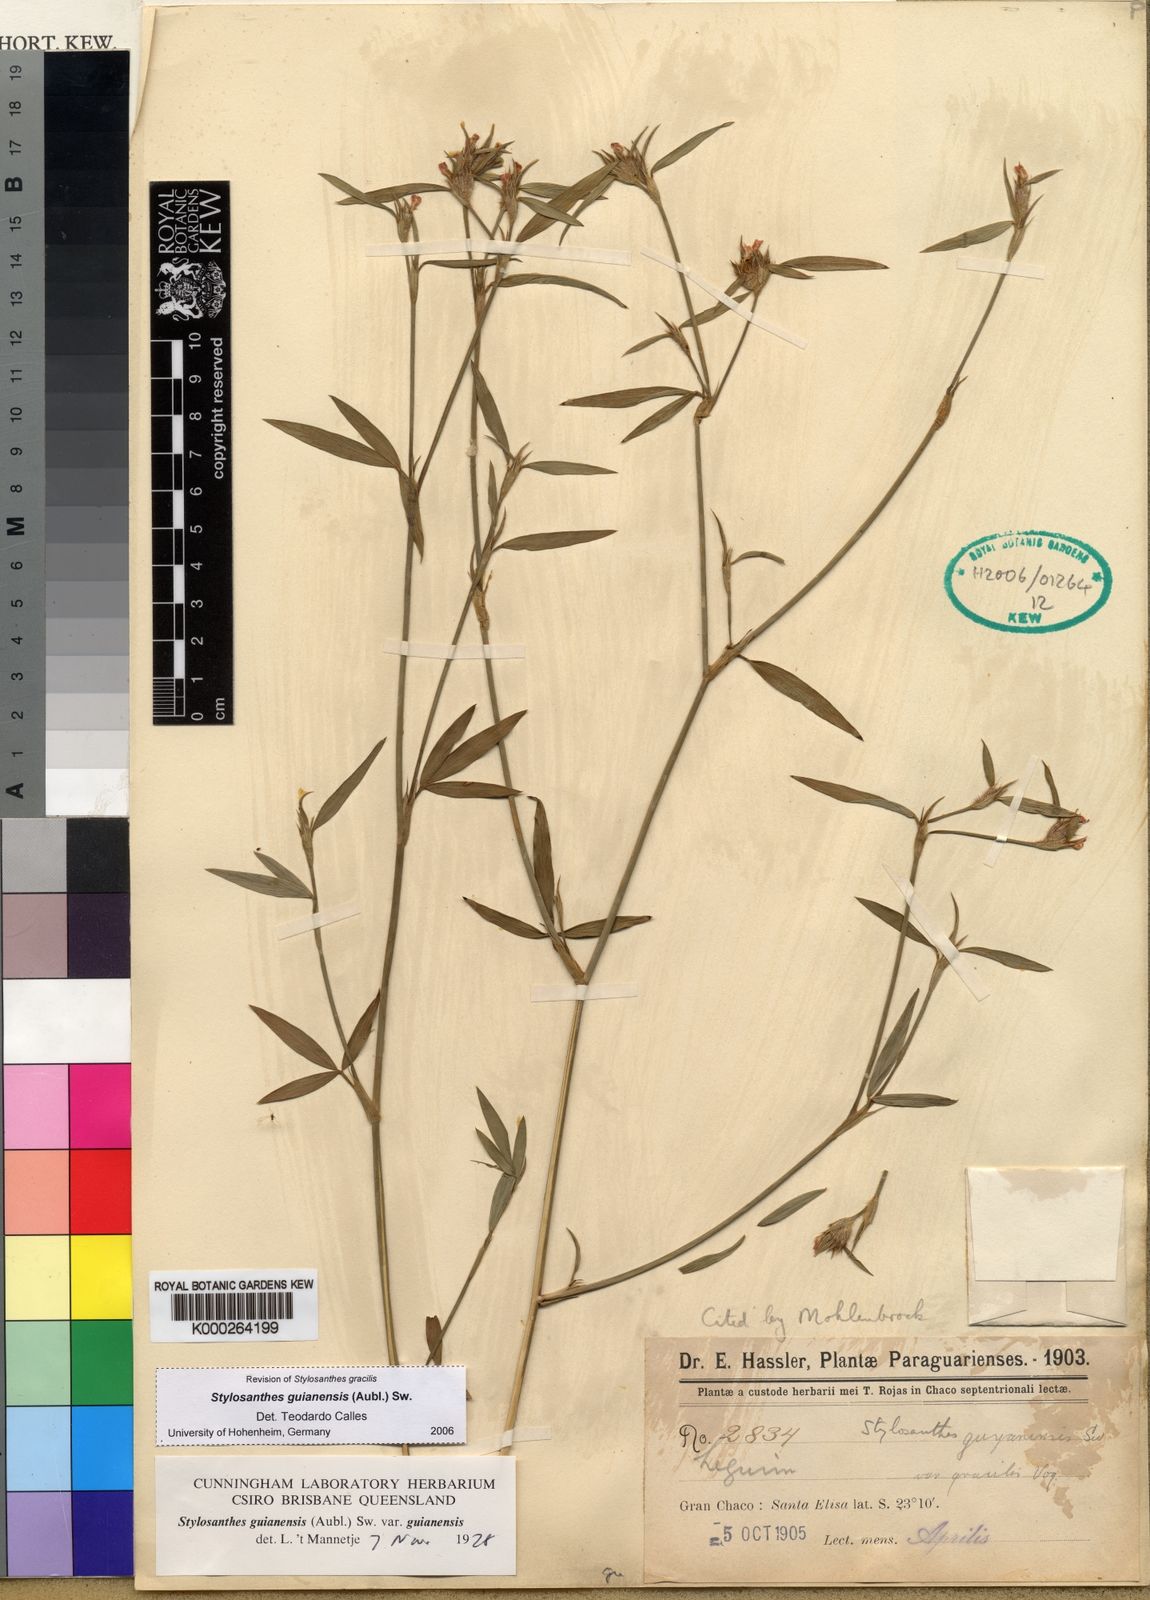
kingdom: Plantae
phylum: Tracheophyta
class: Magnoliopsida
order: Fabales
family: Fabaceae
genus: Stylosanthes
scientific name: Stylosanthes
